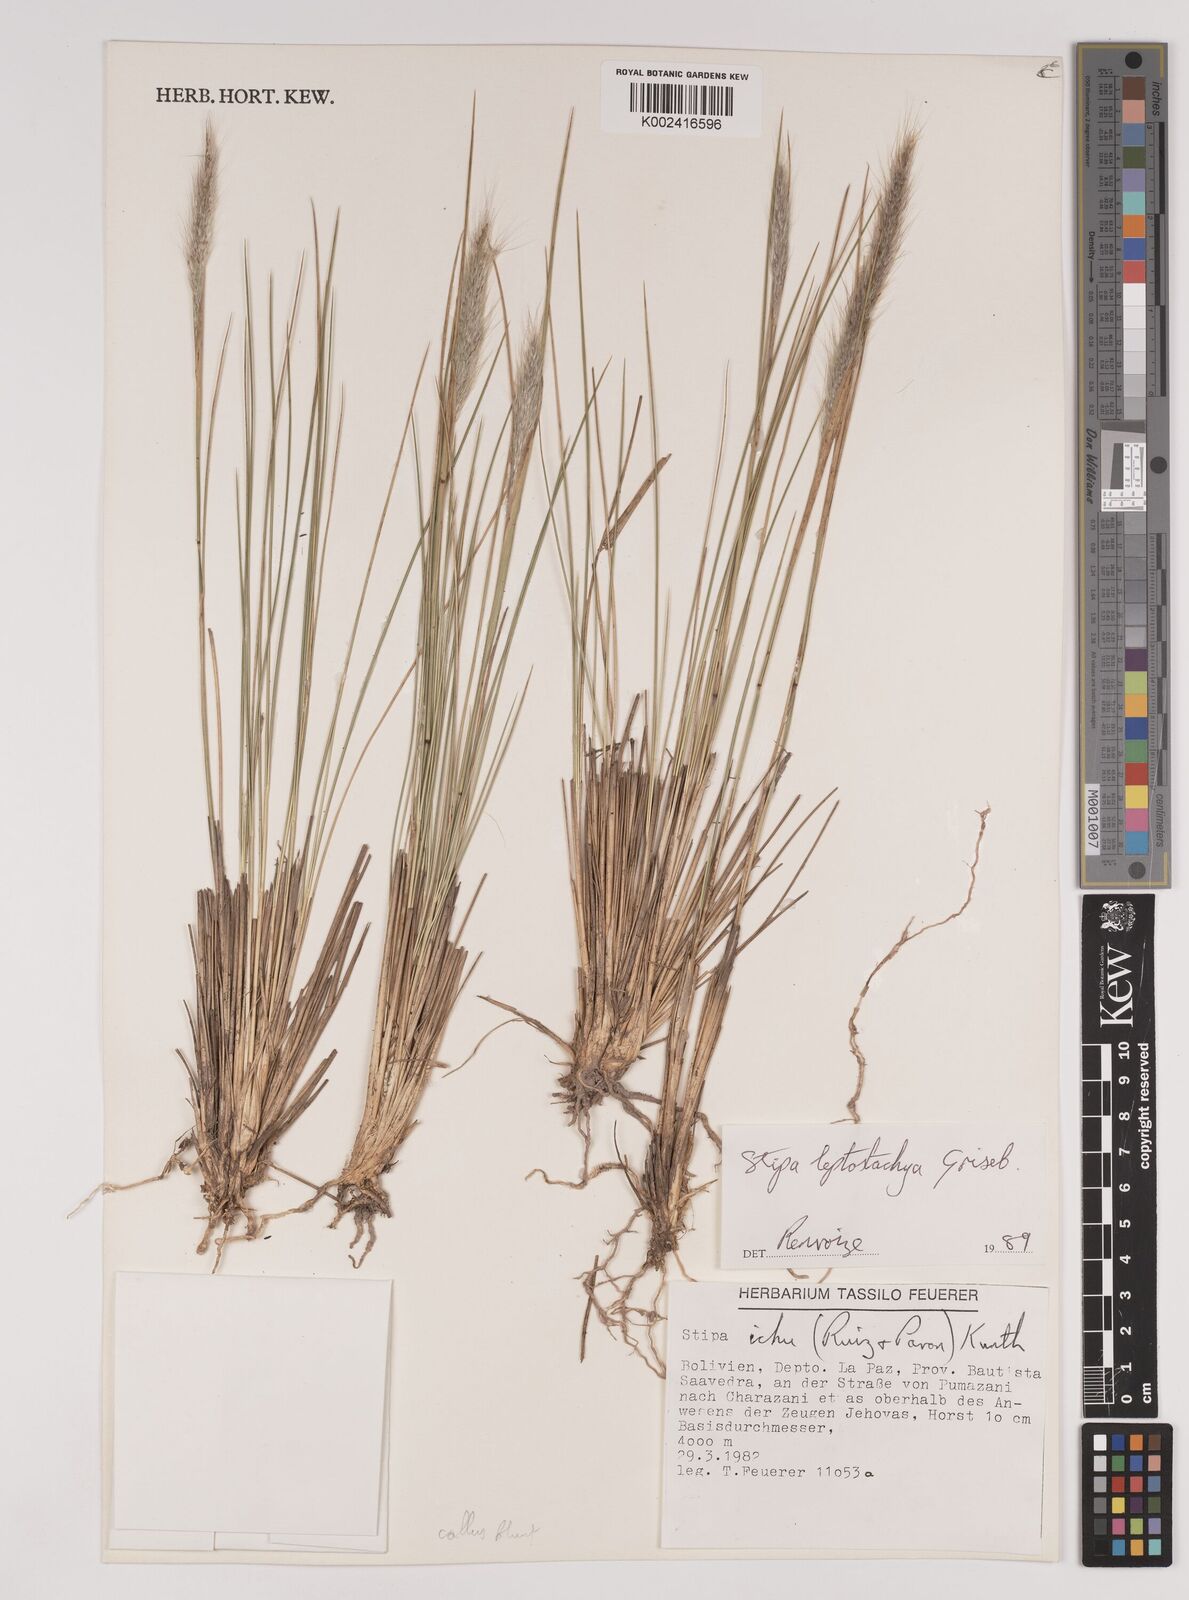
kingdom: Plantae
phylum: Tracheophyta
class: Liliopsida
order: Poales
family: Poaceae
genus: Jarava
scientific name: Jarava leptostachya
